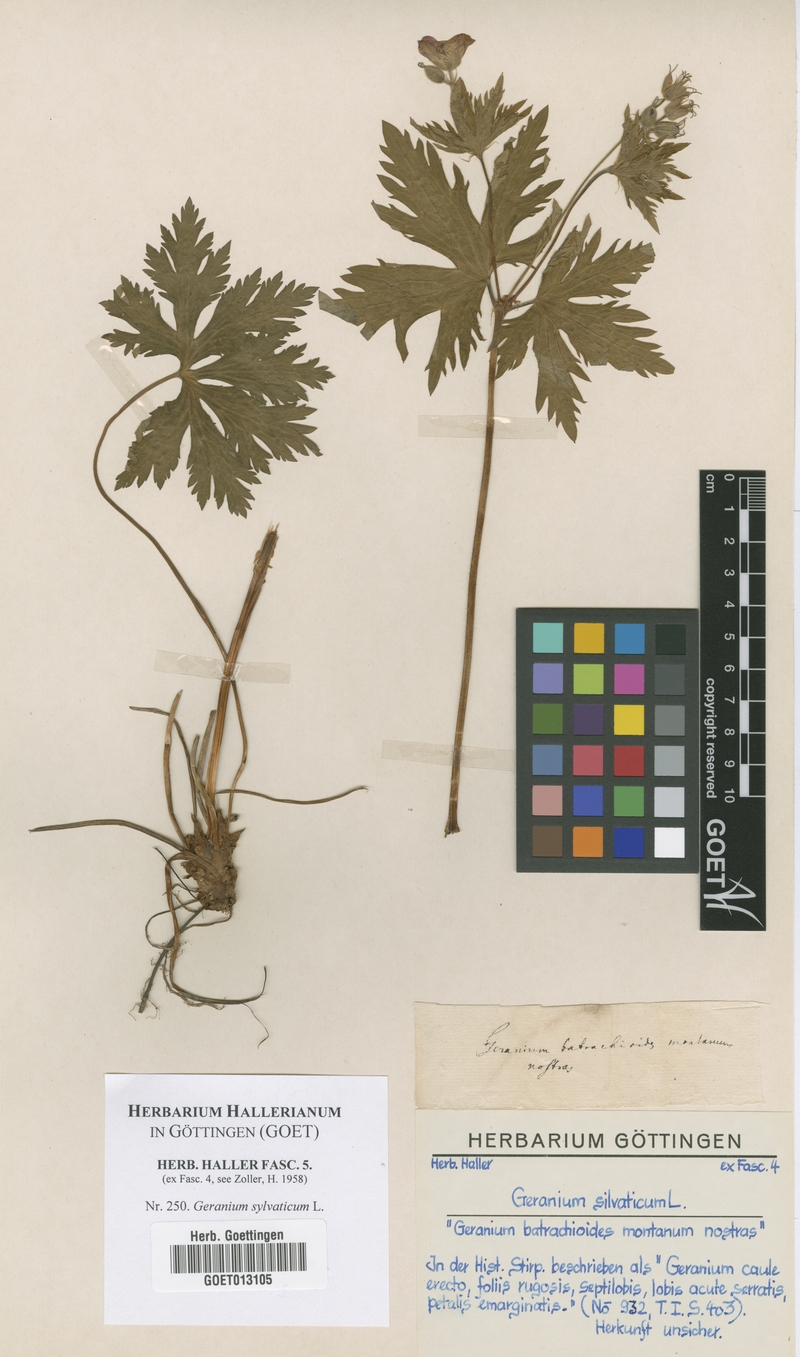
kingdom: Plantae
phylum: Tracheophyta
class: Magnoliopsida
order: Geraniales
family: Geraniaceae
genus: Geranium
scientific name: Geranium sylvaticum
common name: Wood crane's-bill
